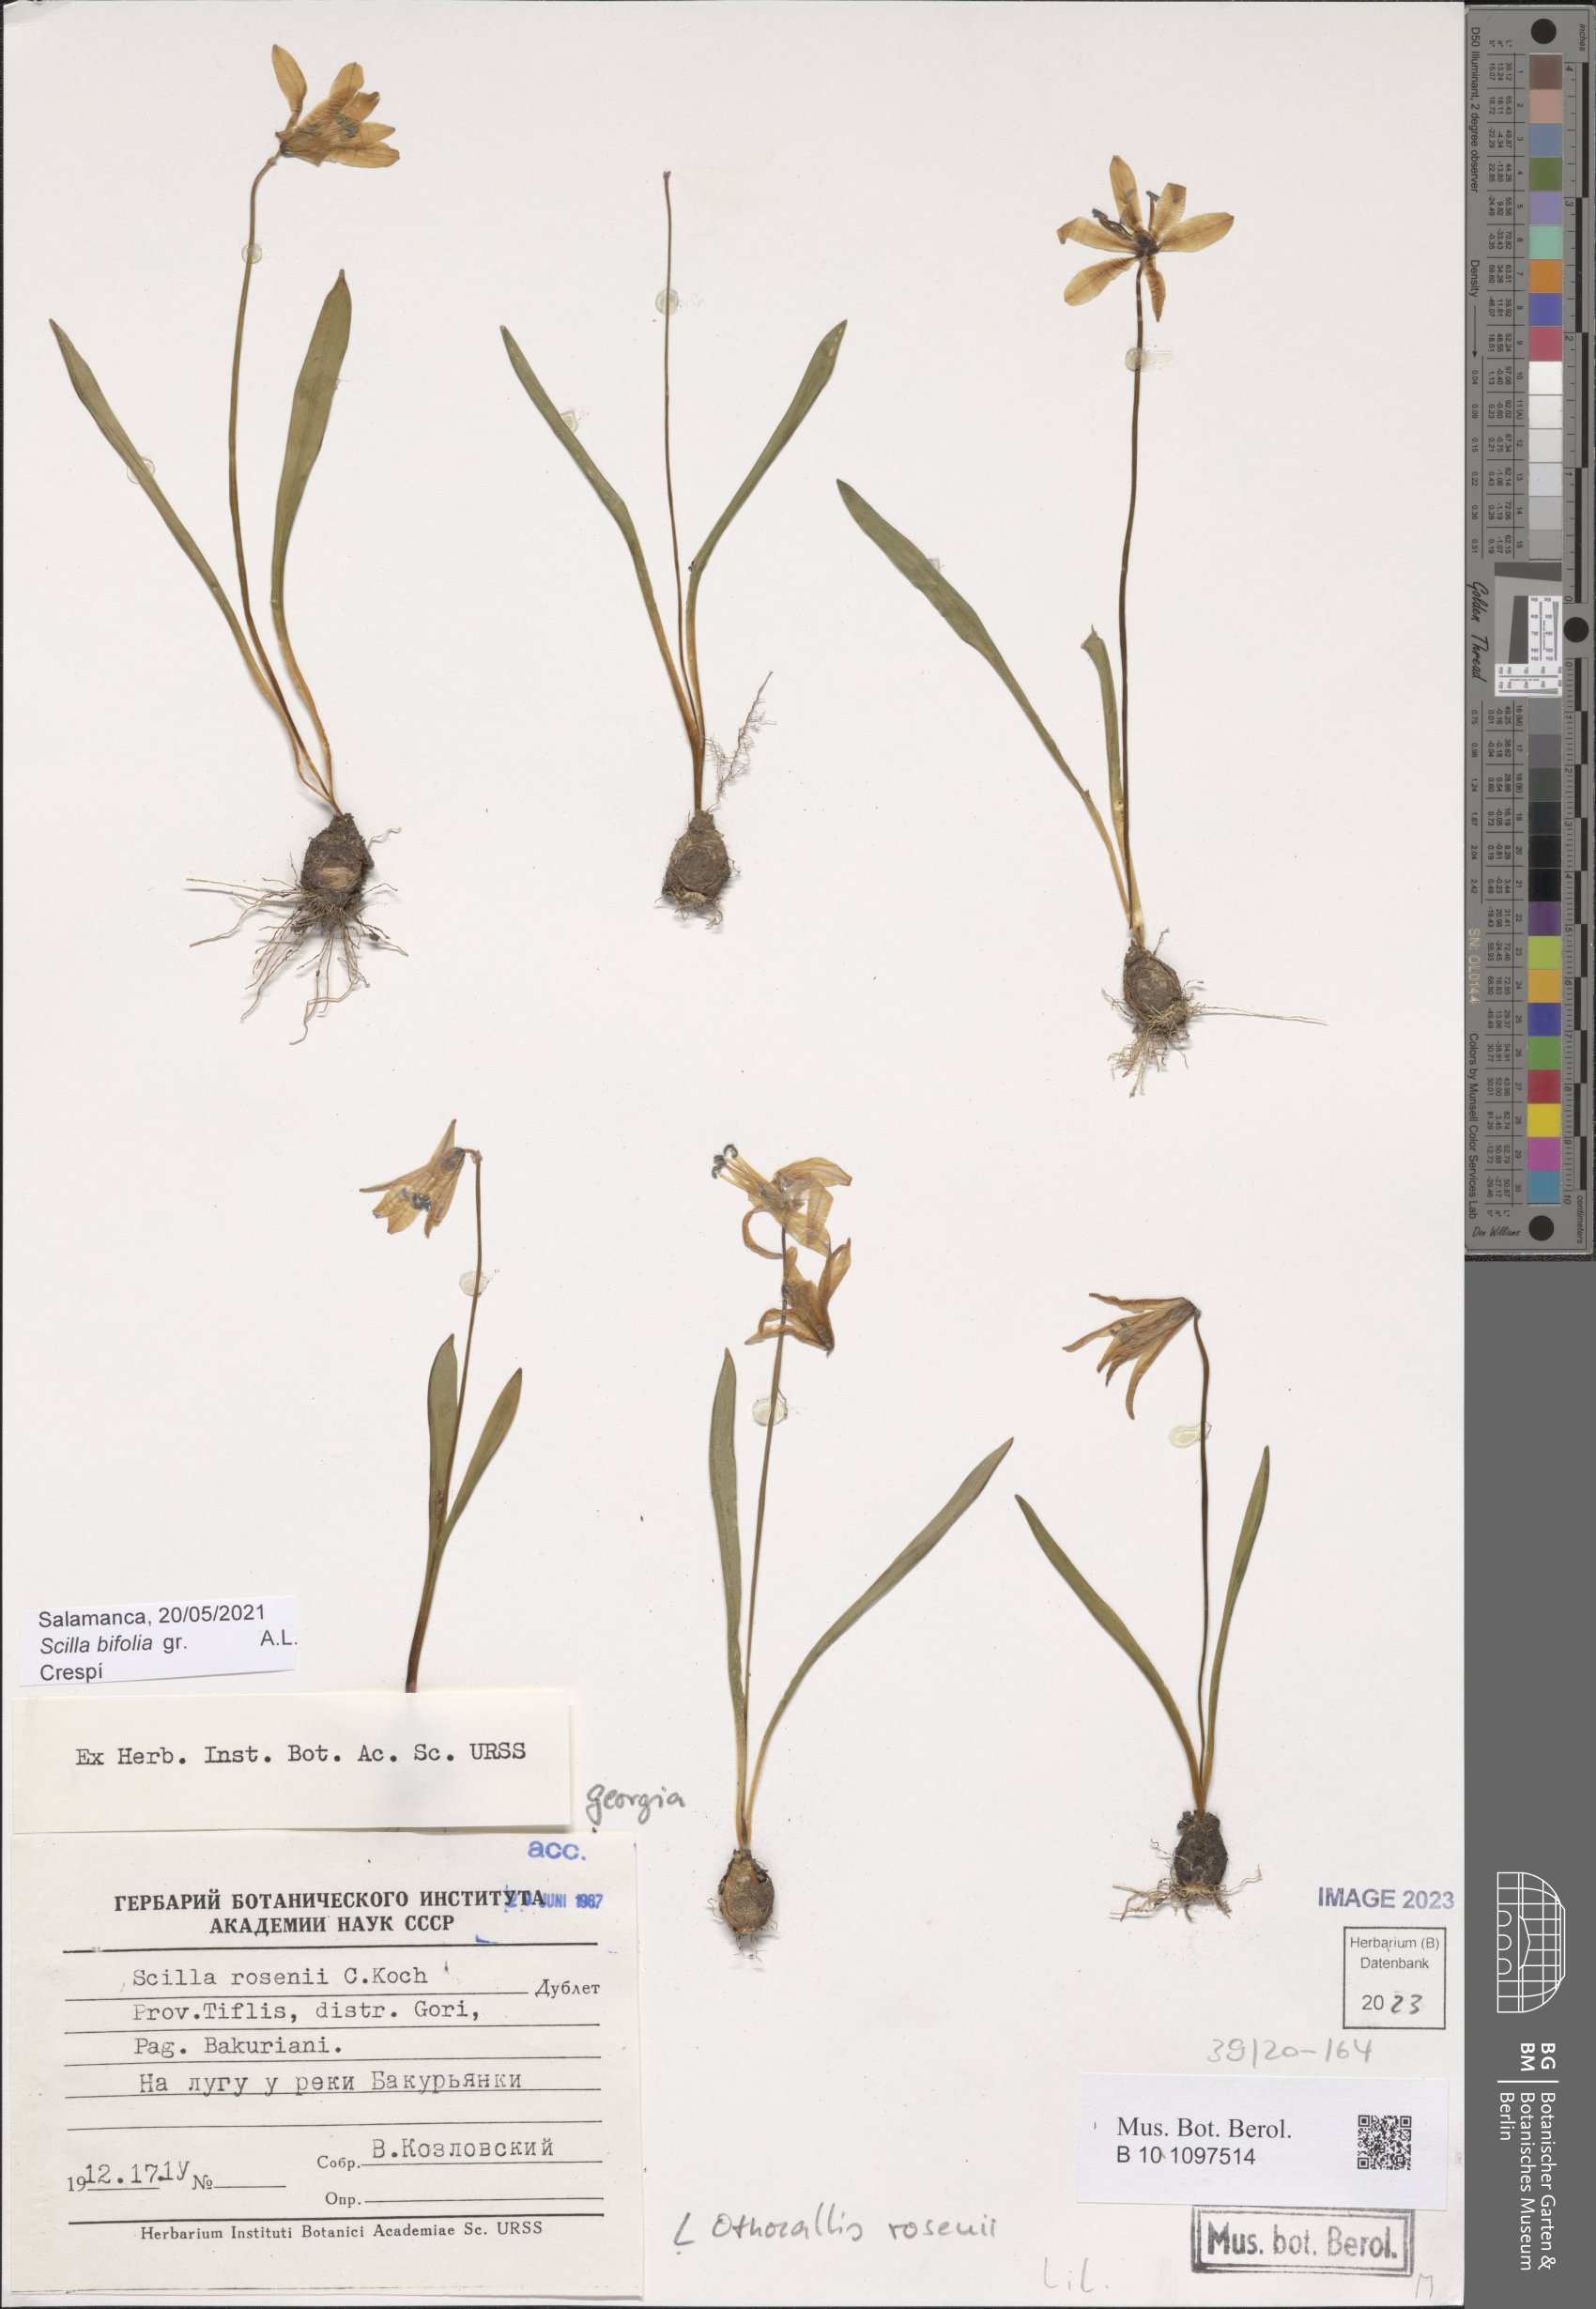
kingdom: Plantae
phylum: Tracheophyta
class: Liliopsida
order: Asparagales
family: Asparagaceae
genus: Scilla
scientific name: Scilla rosenii
